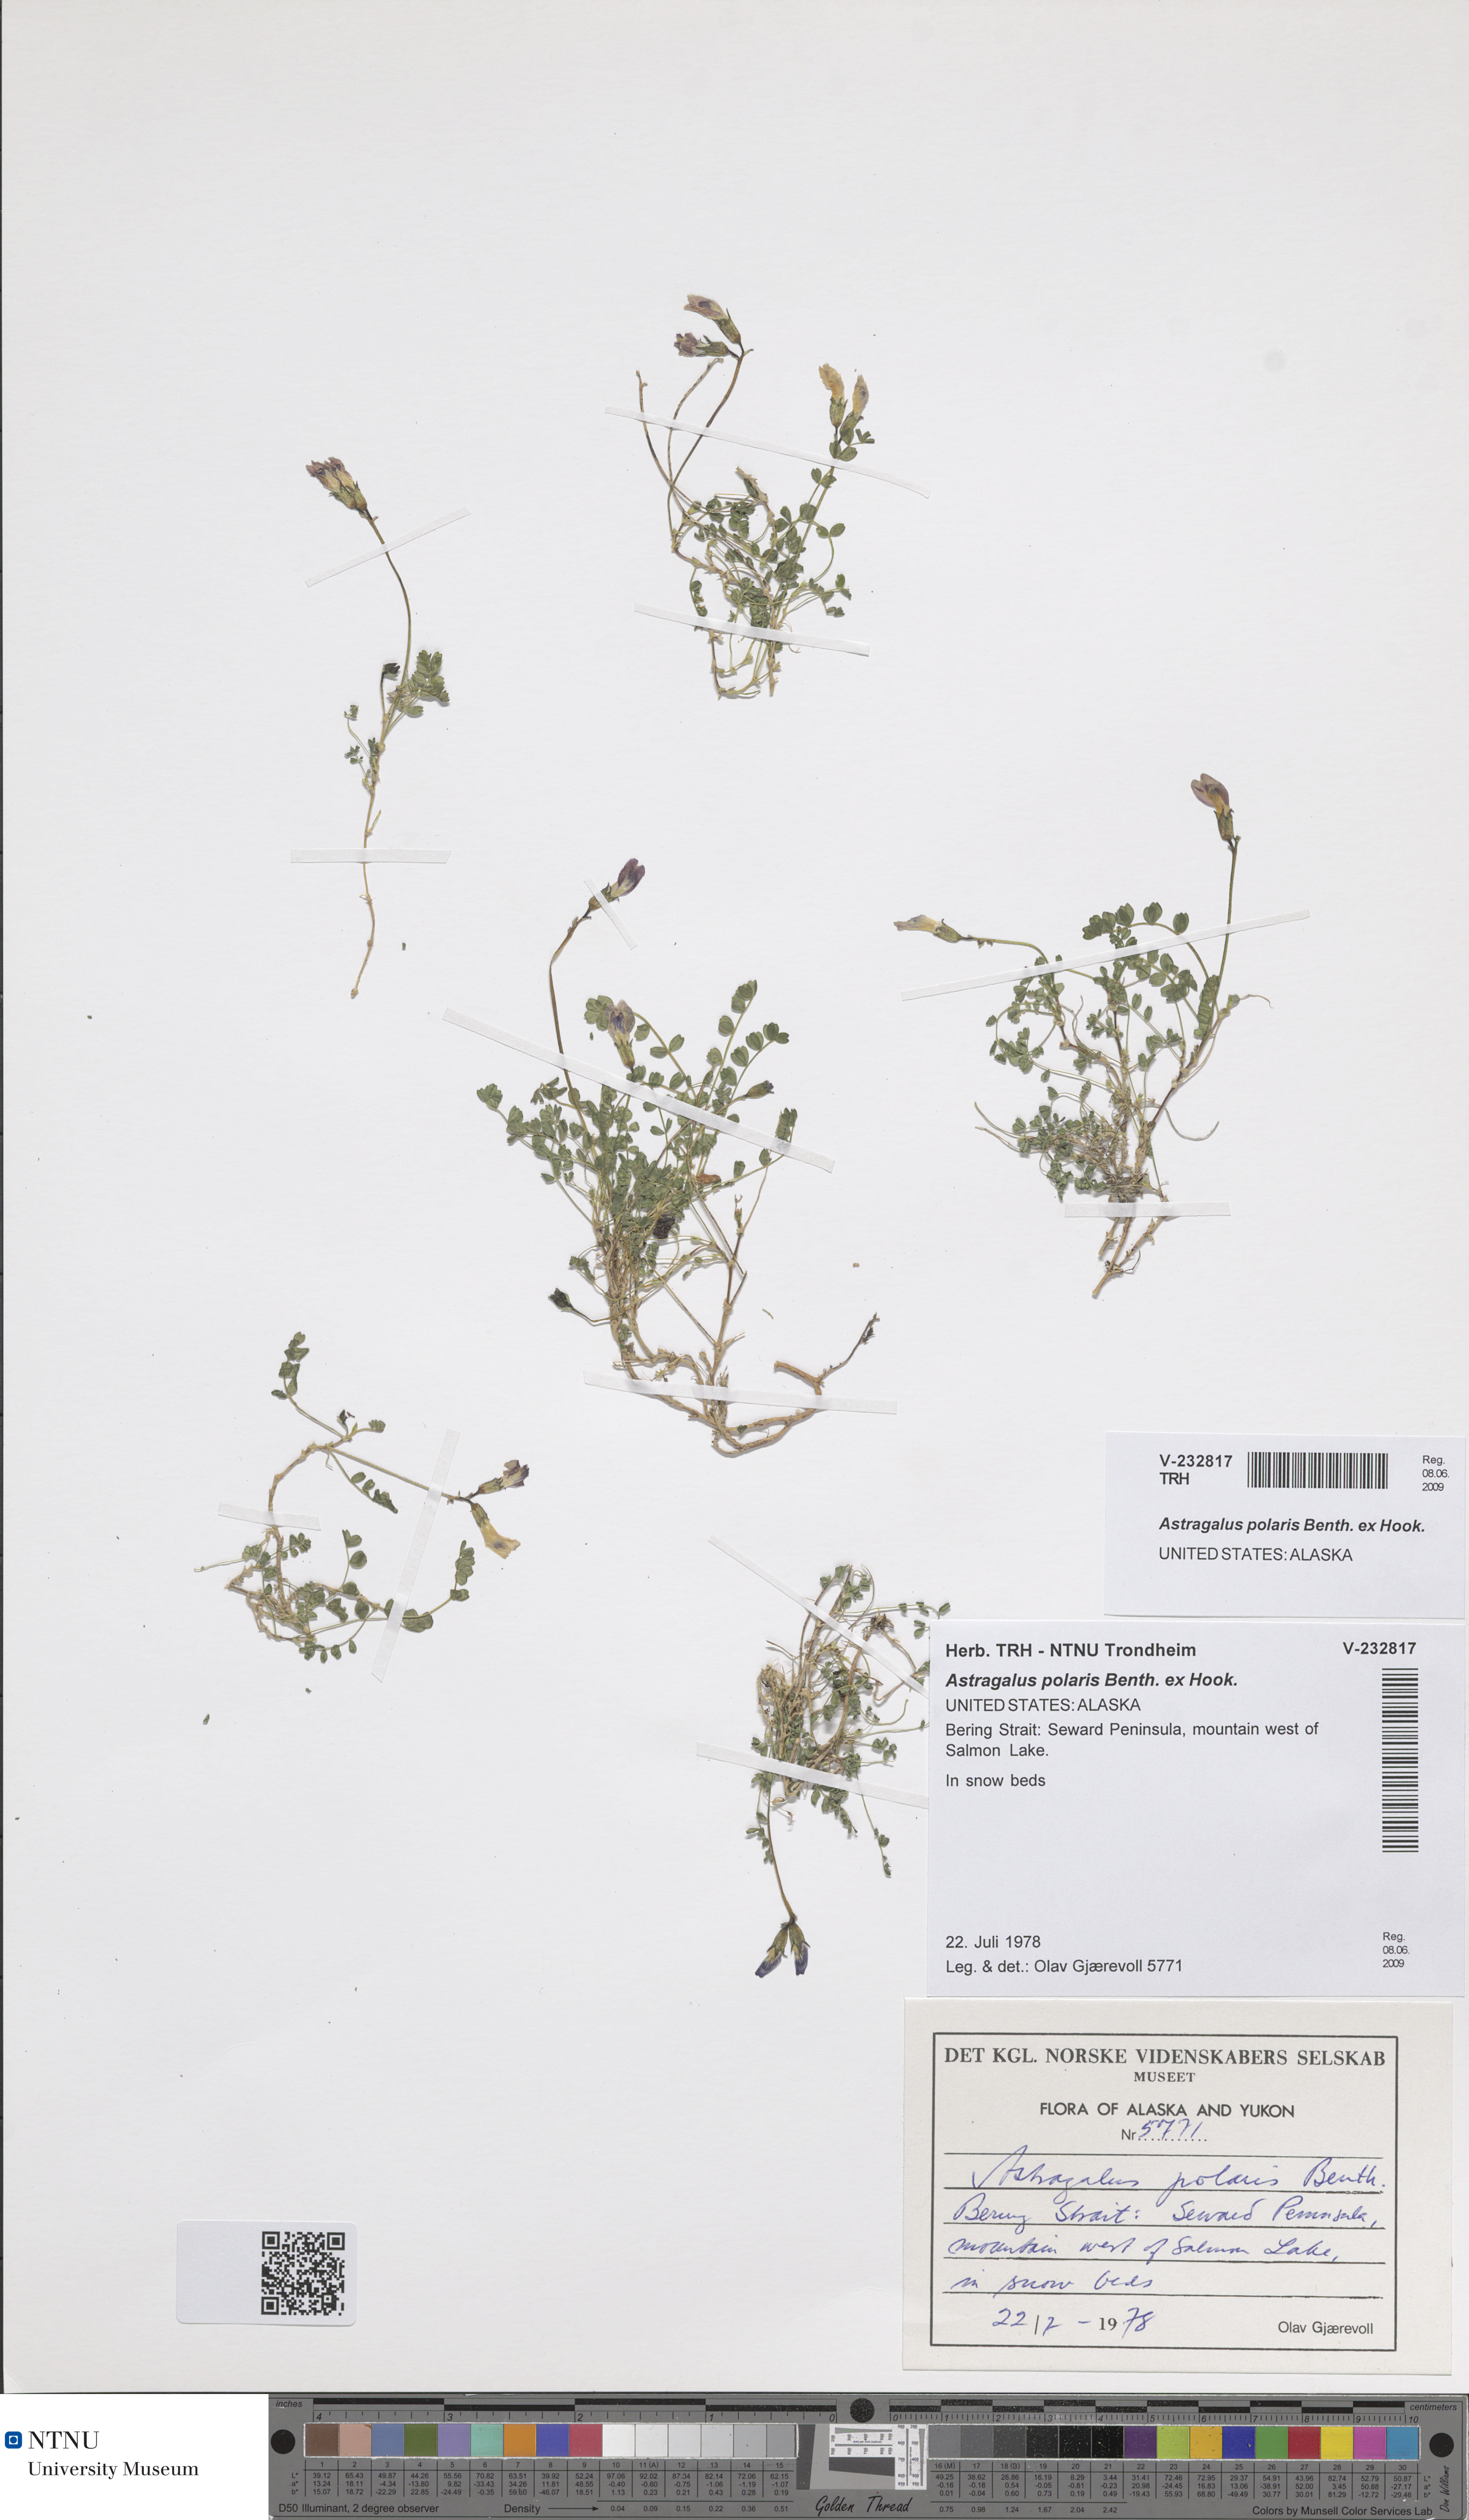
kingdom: Plantae
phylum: Tracheophyta
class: Magnoliopsida
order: Fabales
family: Fabaceae
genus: Astragalus
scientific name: Astragalus polaris
